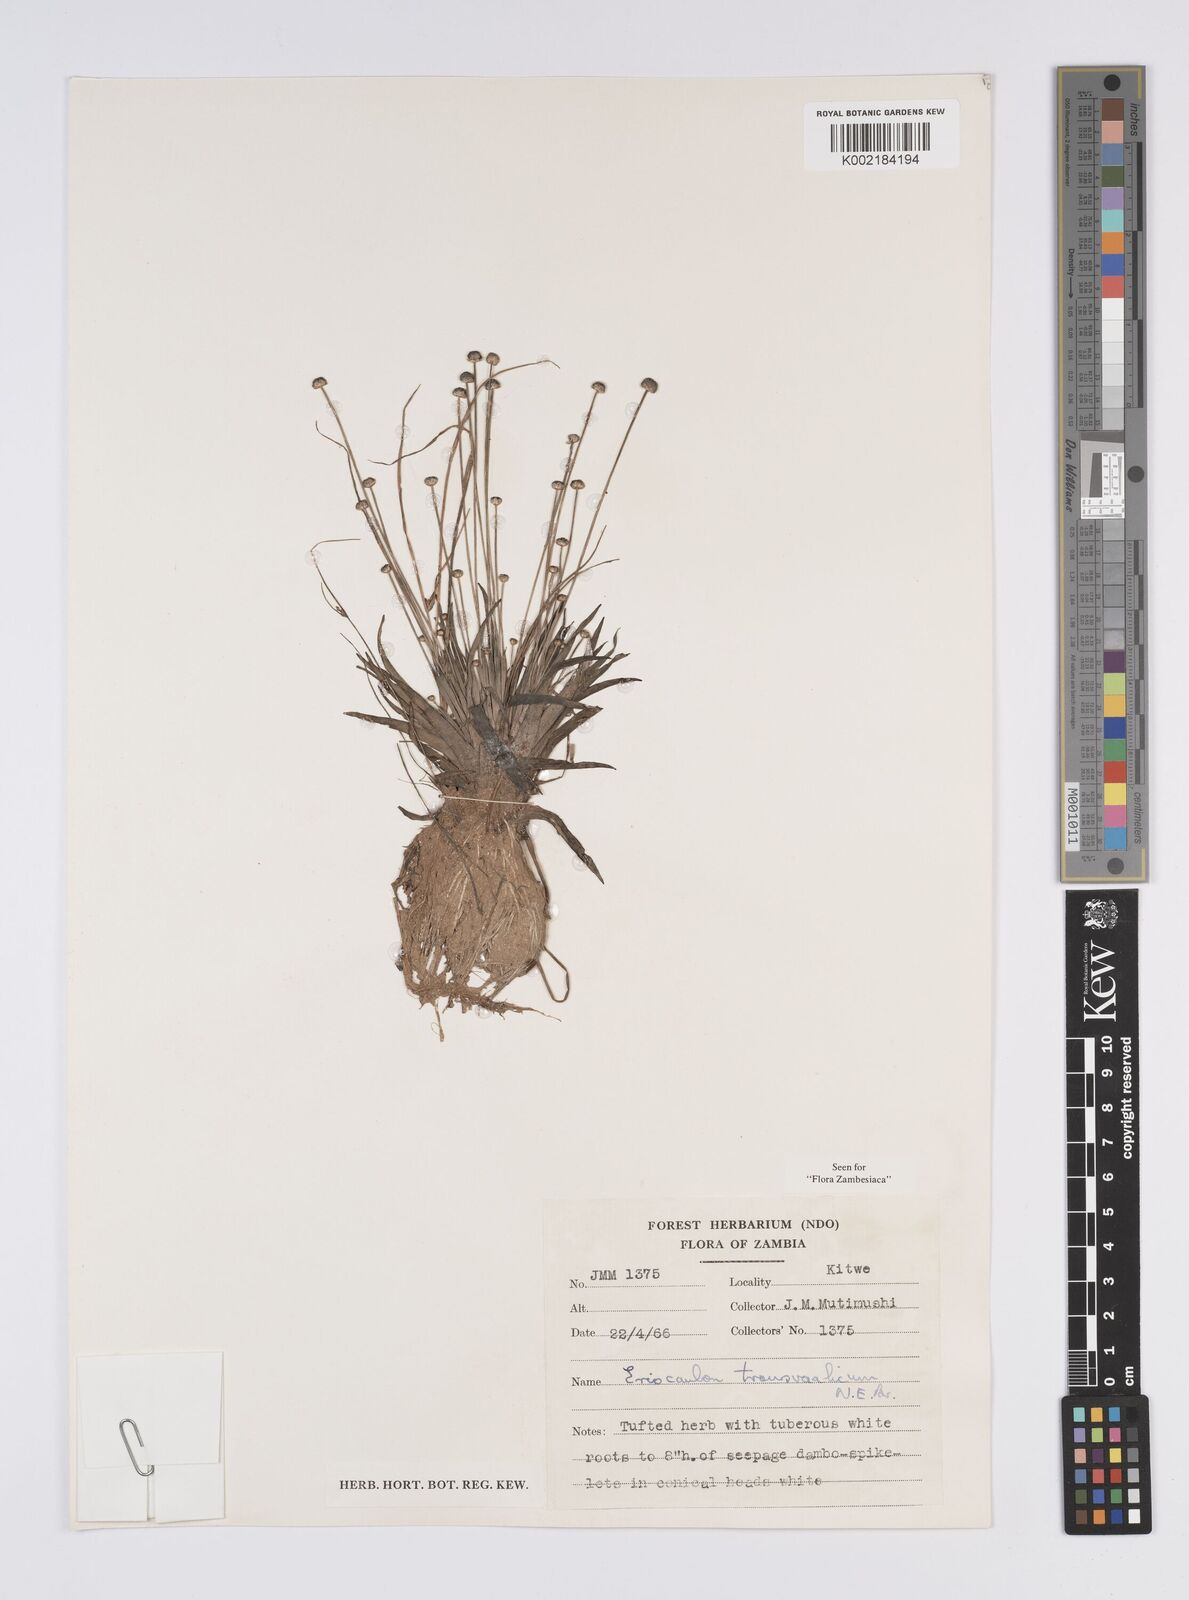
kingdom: Plantae
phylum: Tracheophyta
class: Liliopsida
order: Poales
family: Eriocaulaceae
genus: Eriocaulon
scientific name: Eriocaulon transvaalicum
